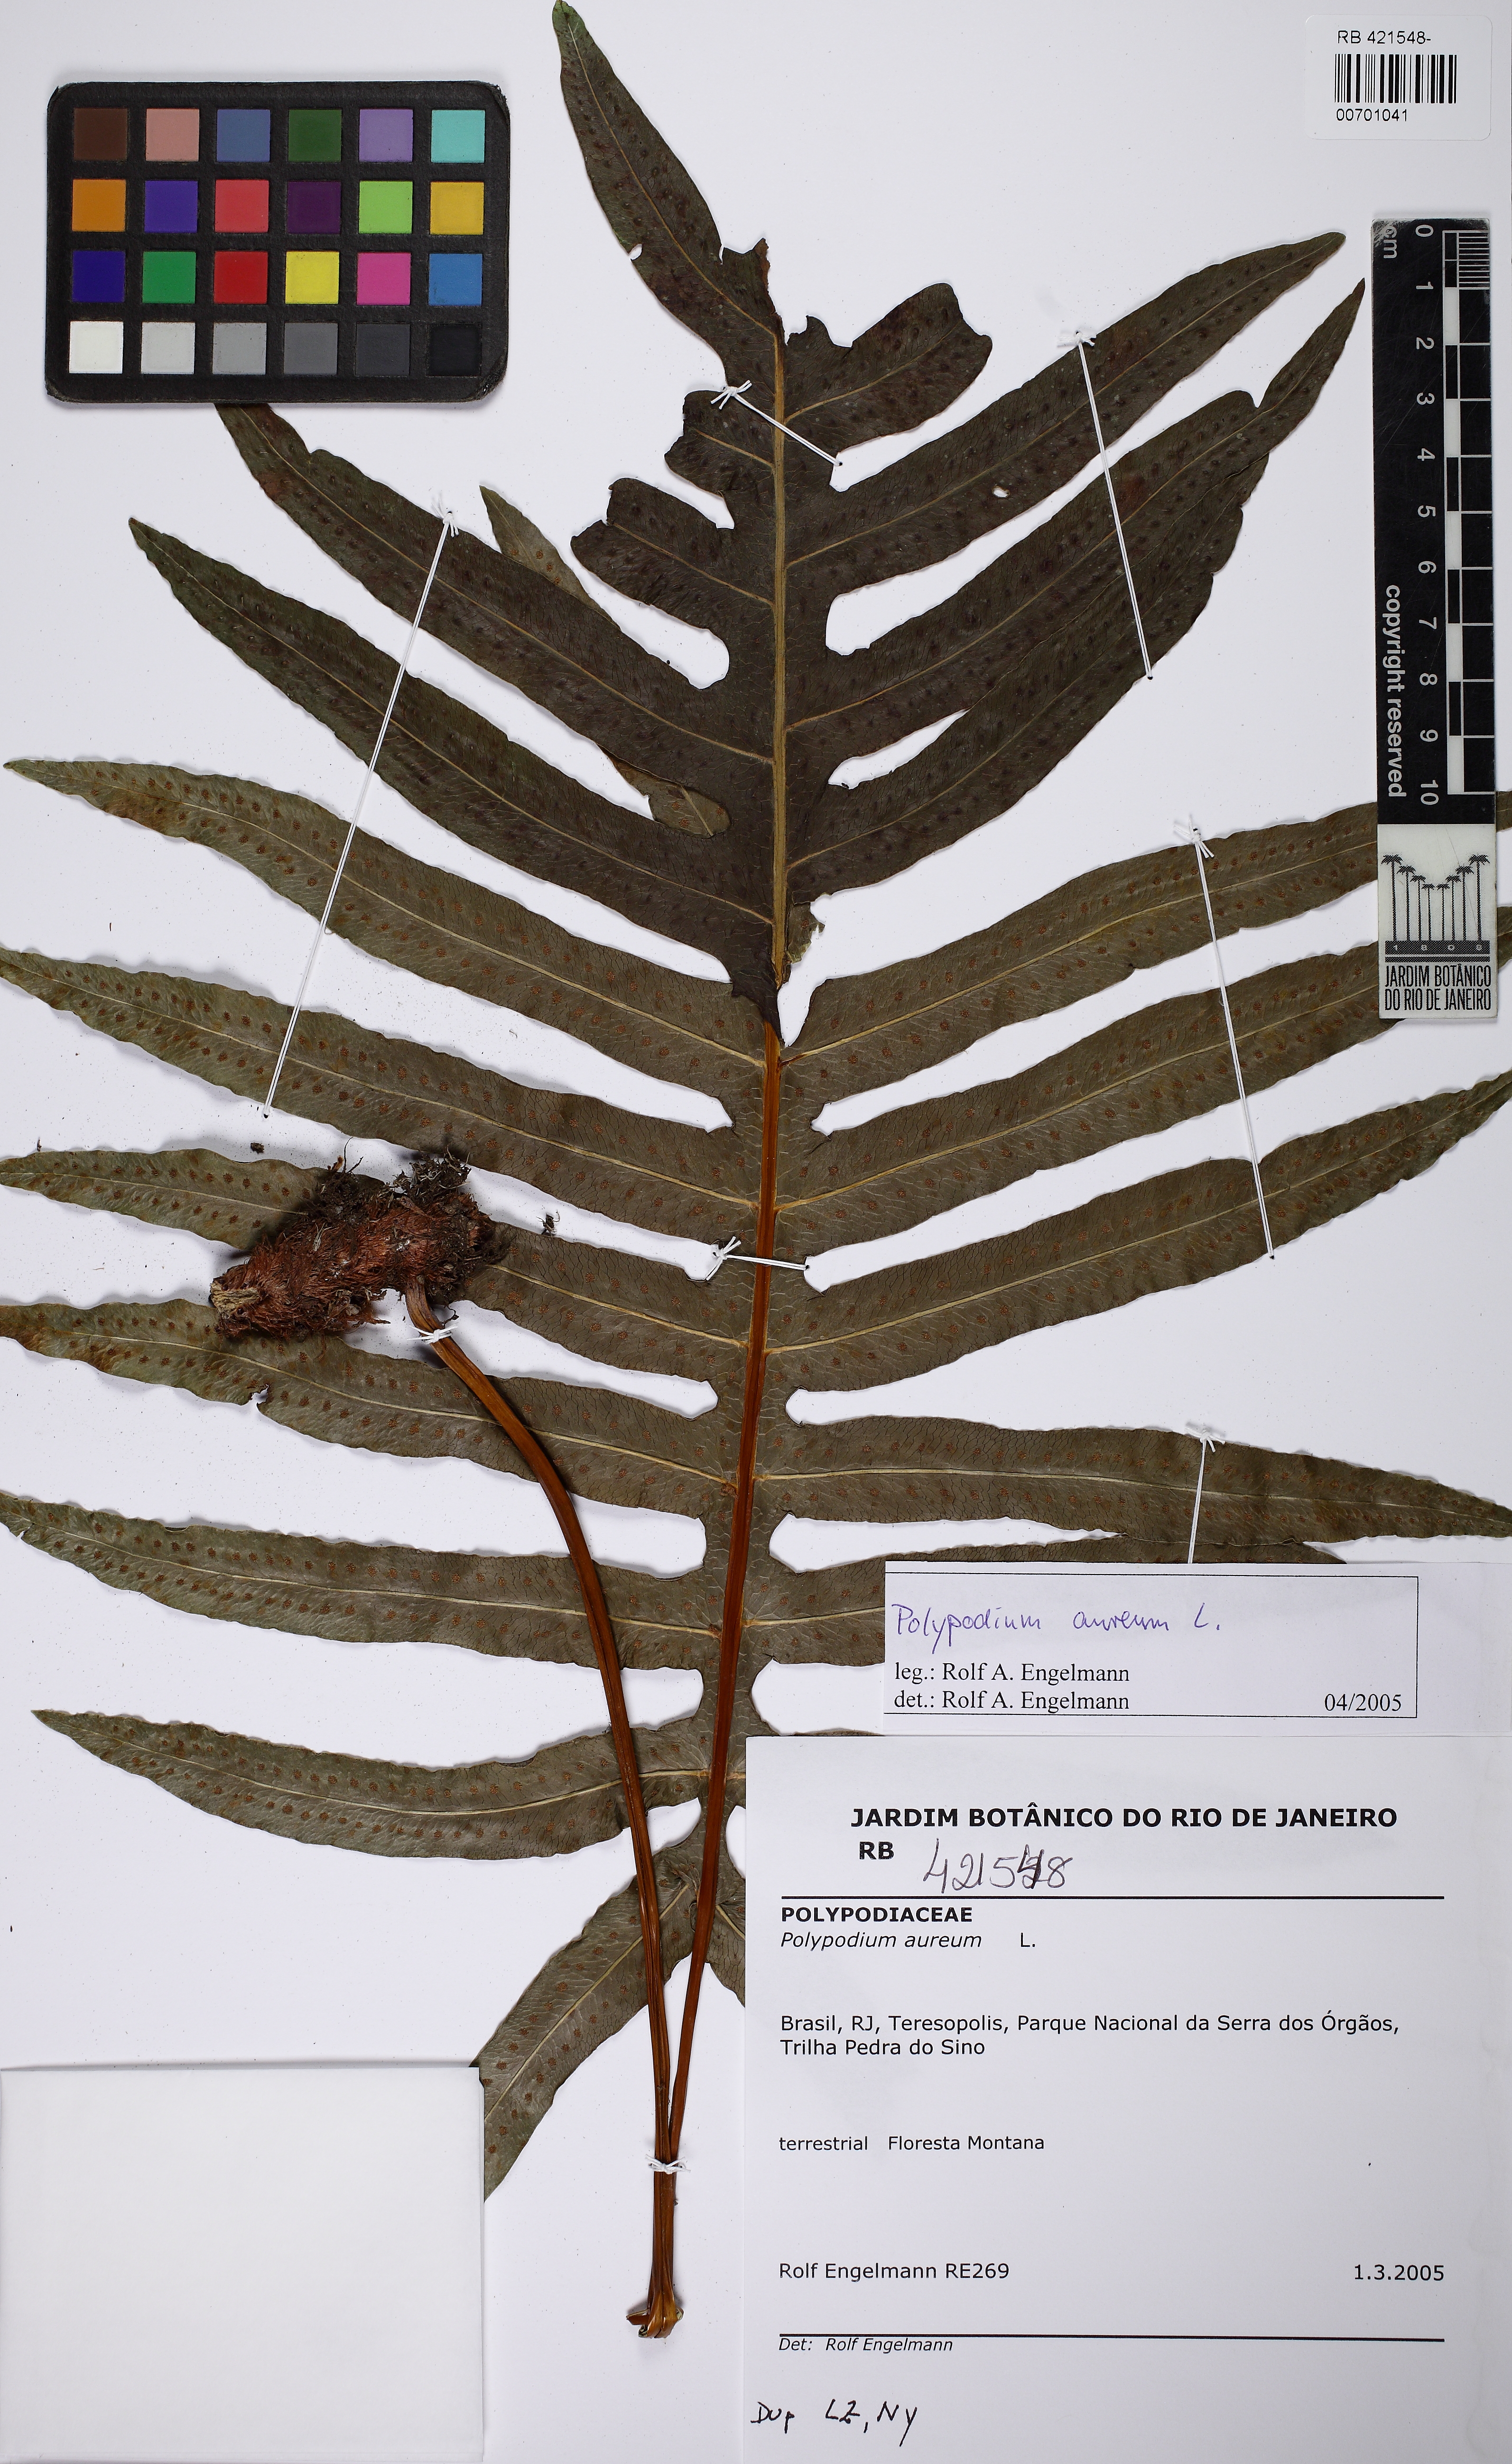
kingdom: Plantae
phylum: Tracheophyta
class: Polypodiopsida
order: Polypodiales
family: Polypodiaceae
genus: Phlebodium
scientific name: Phlebodium pseudoaureum
